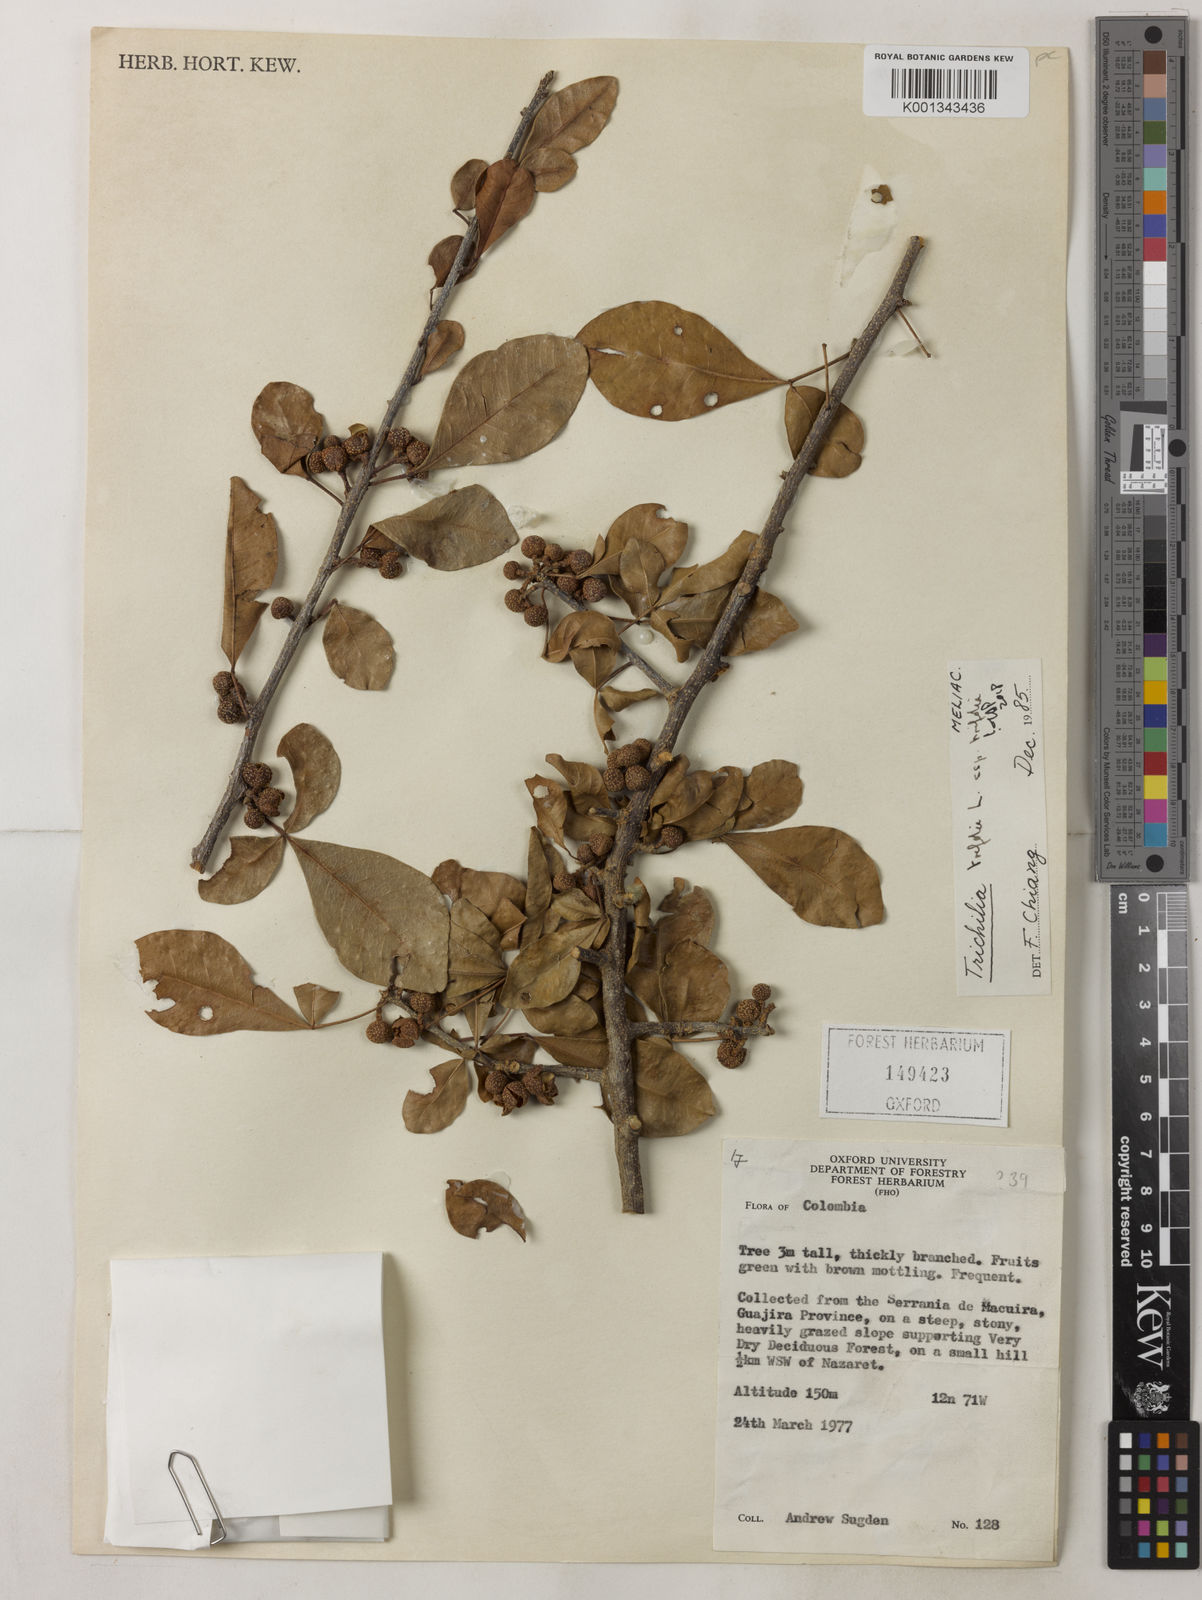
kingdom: Plantae
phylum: Tracheophyta
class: Magnoliopsida
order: Sapindales
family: Meliaceae
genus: Trichilia
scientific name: Trichilia trifolia
